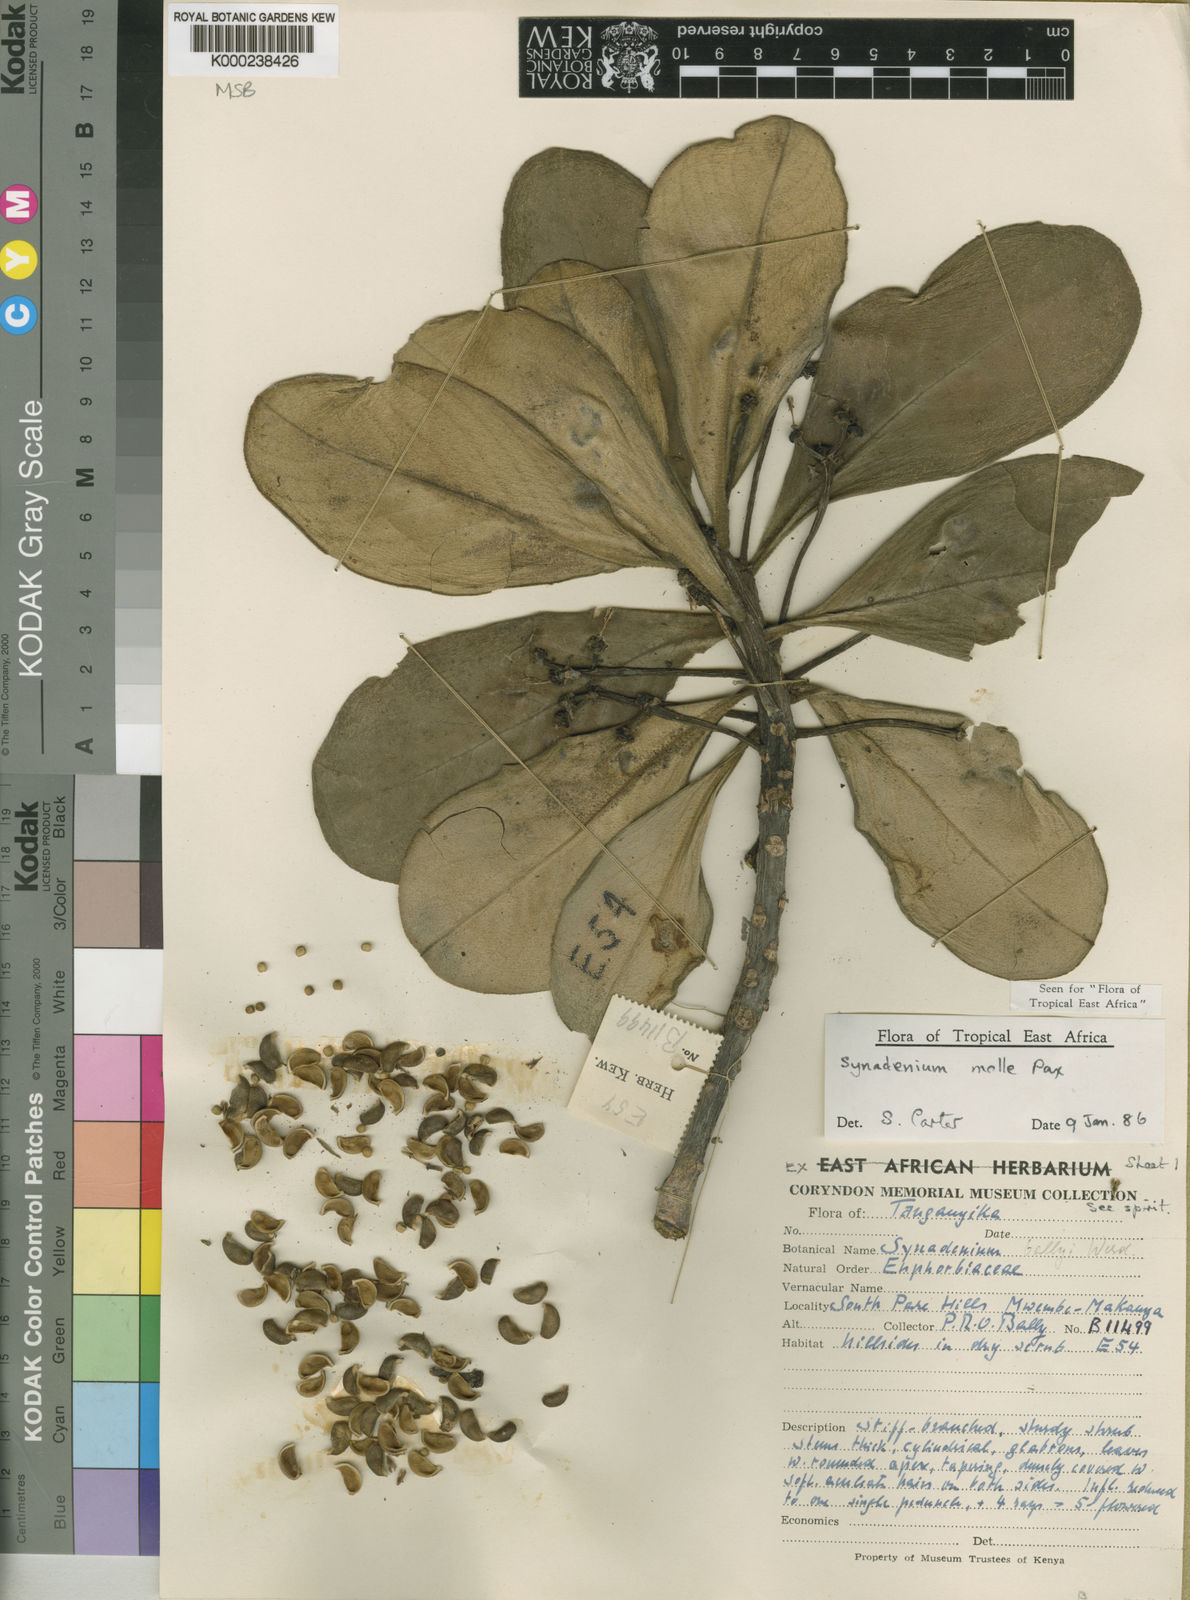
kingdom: Plantae
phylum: Tracheophyta
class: Magnoliopsida
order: Malpighiales
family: Euphorbiaceae
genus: Euphorbia
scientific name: Euphorbia pseudomollis
